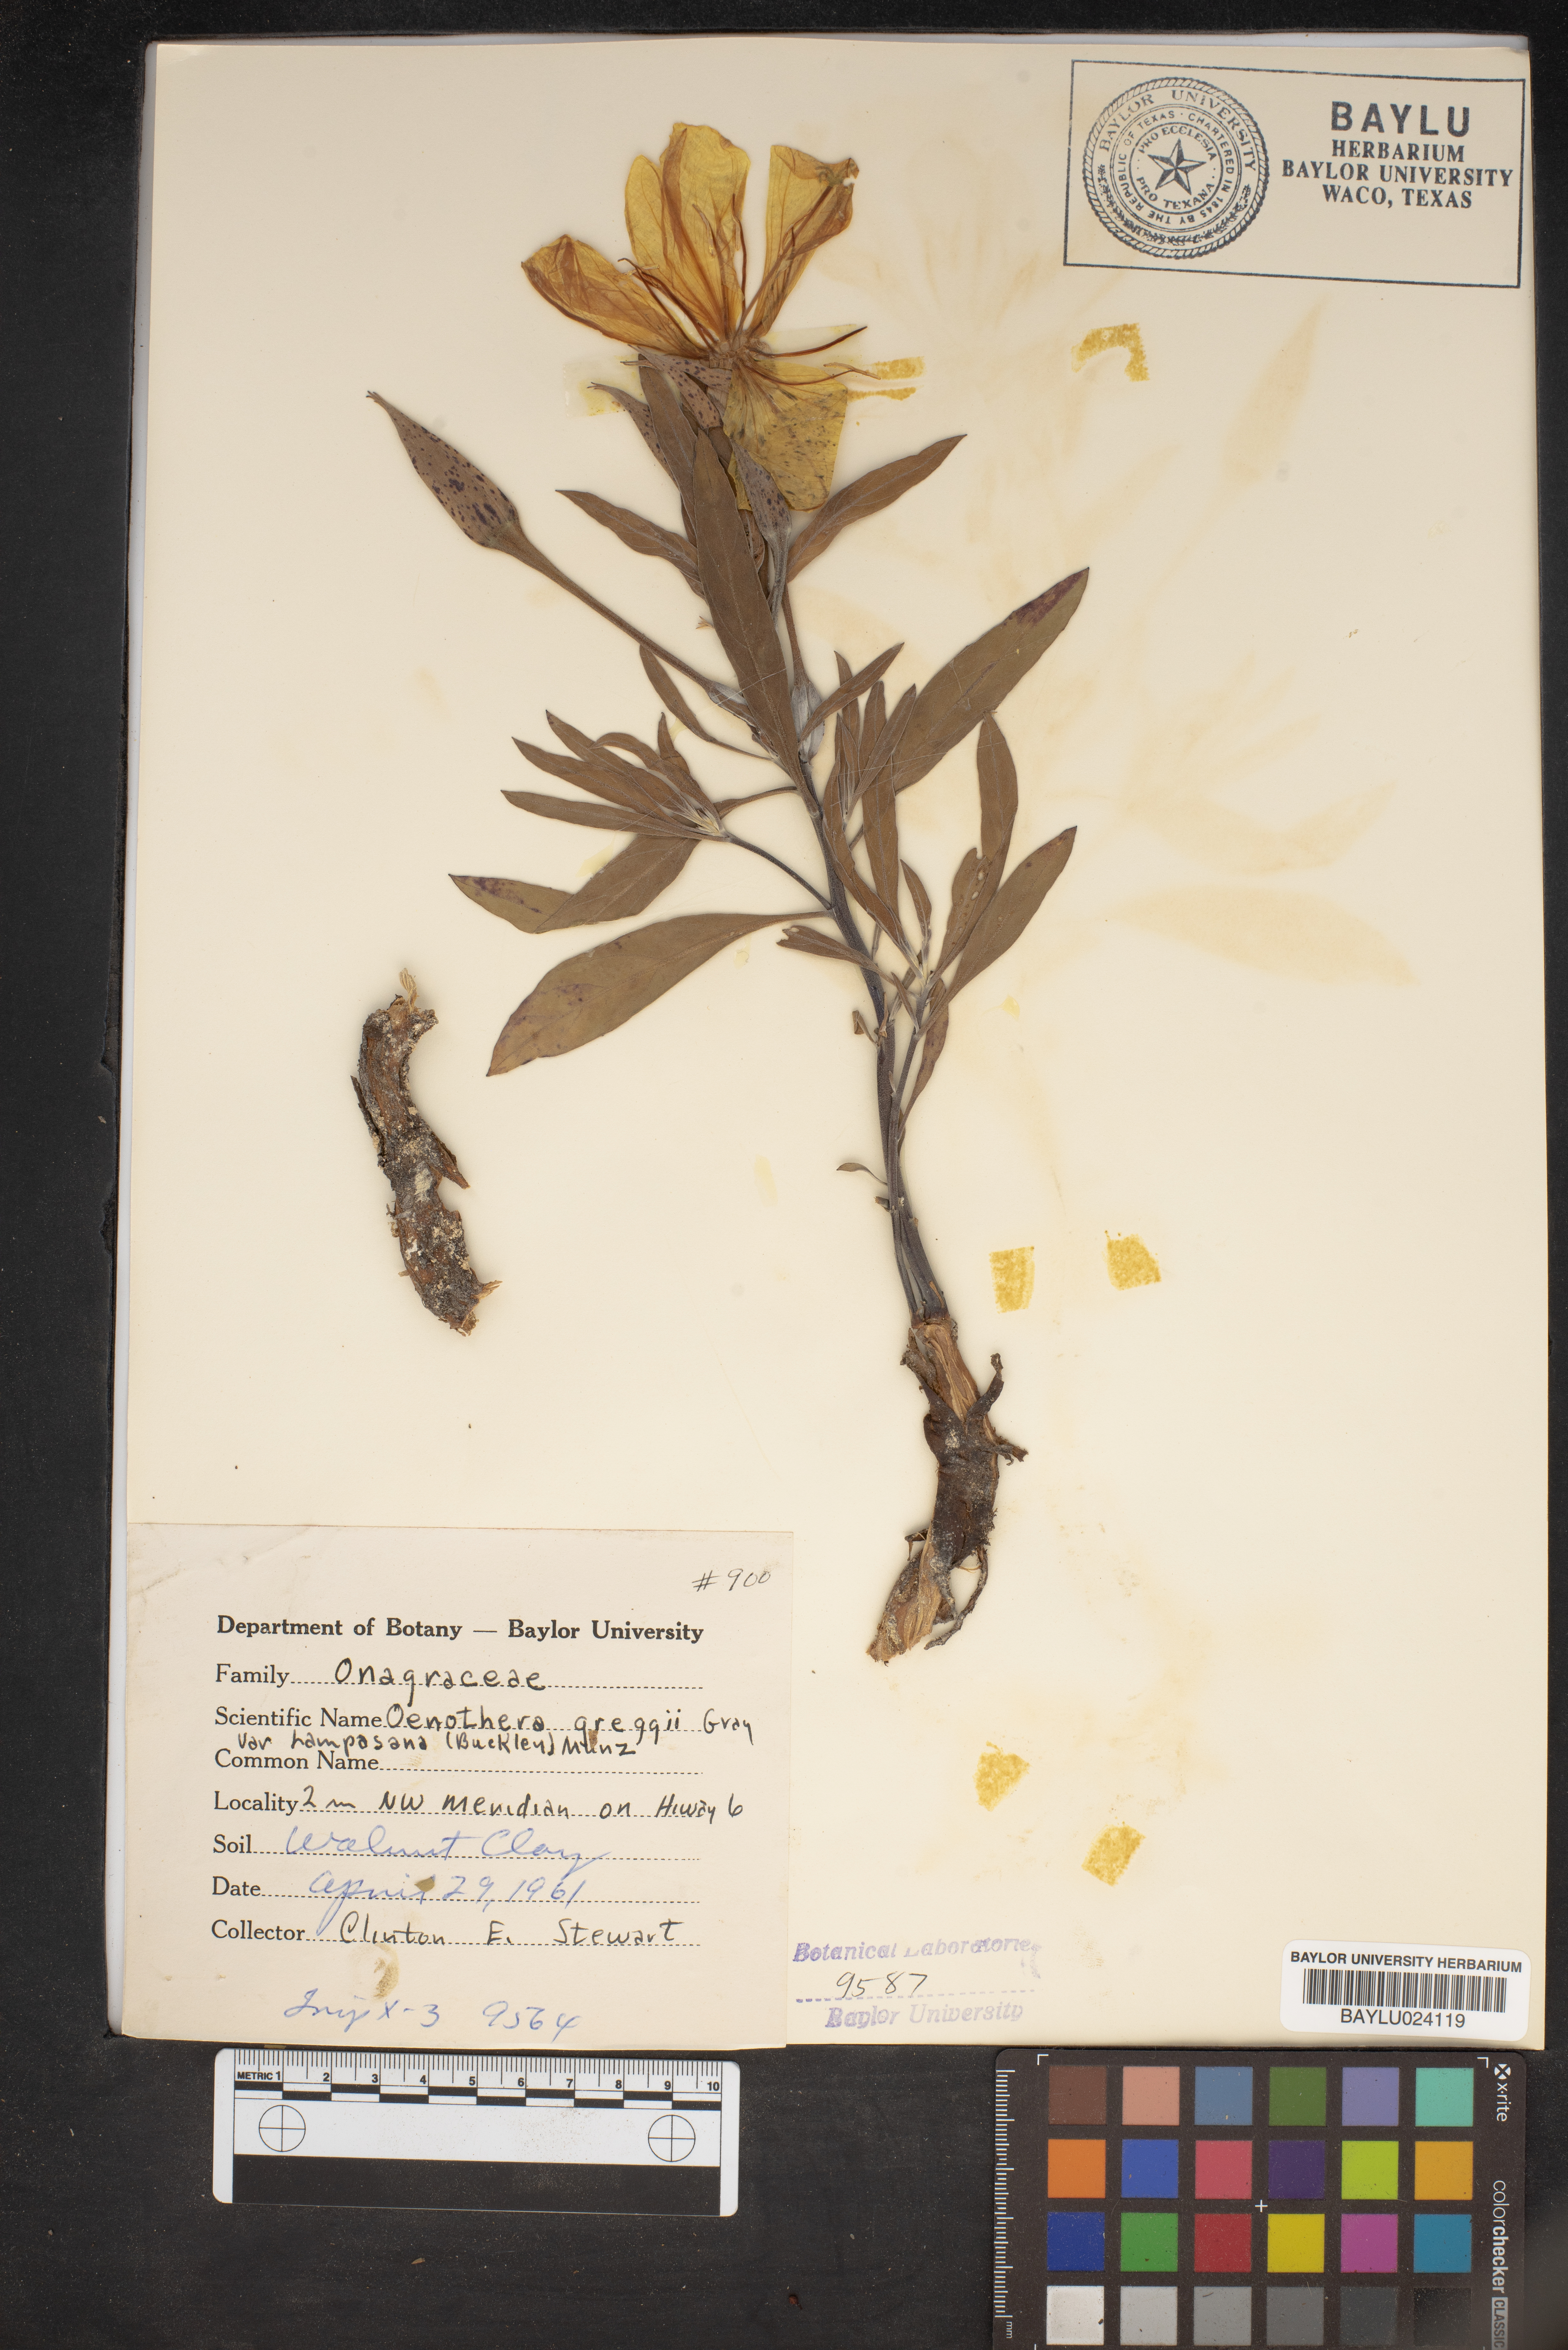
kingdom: Plantae
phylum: Tracheophyta
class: Magnoliopsida
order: Myrtales
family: Onagraceae
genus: Oenothera
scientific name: Oenothera hartwegii
